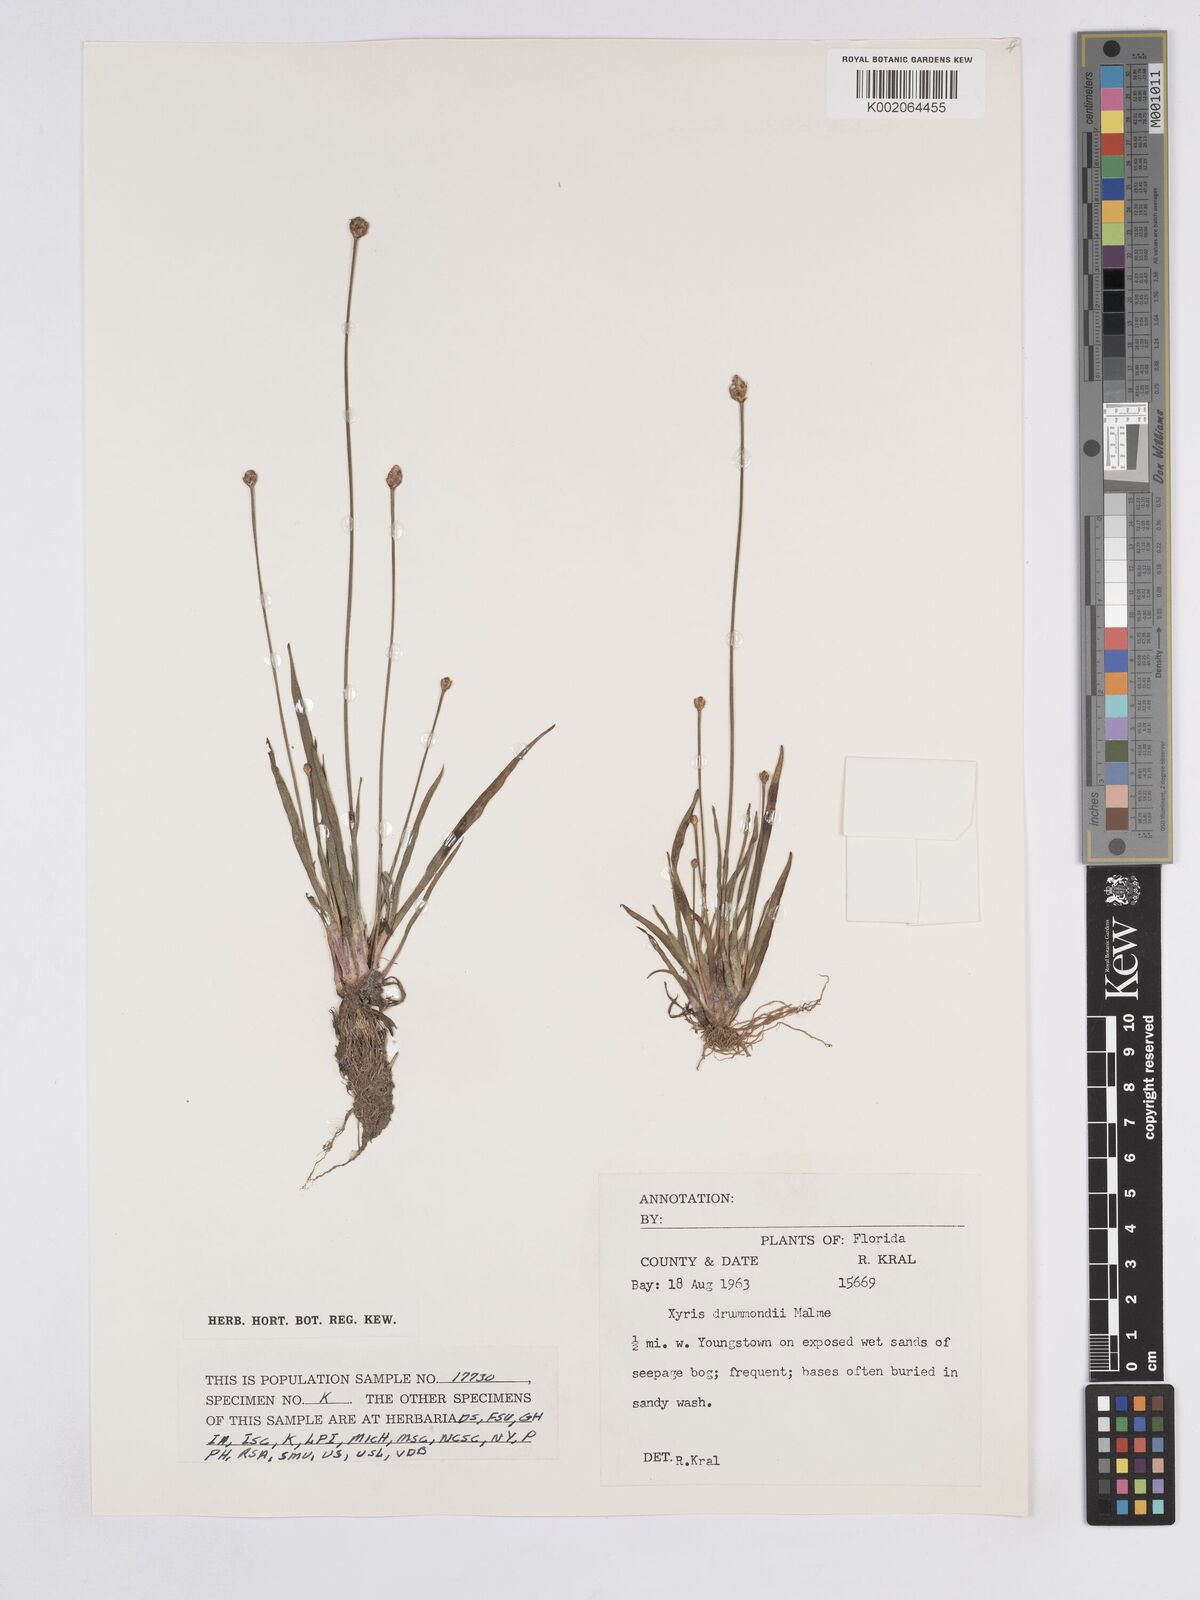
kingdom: Plantae
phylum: Tracheophyta
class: Liliopsida
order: Poales
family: Xyridaceae
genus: Xyris
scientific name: Xyris drummondii
